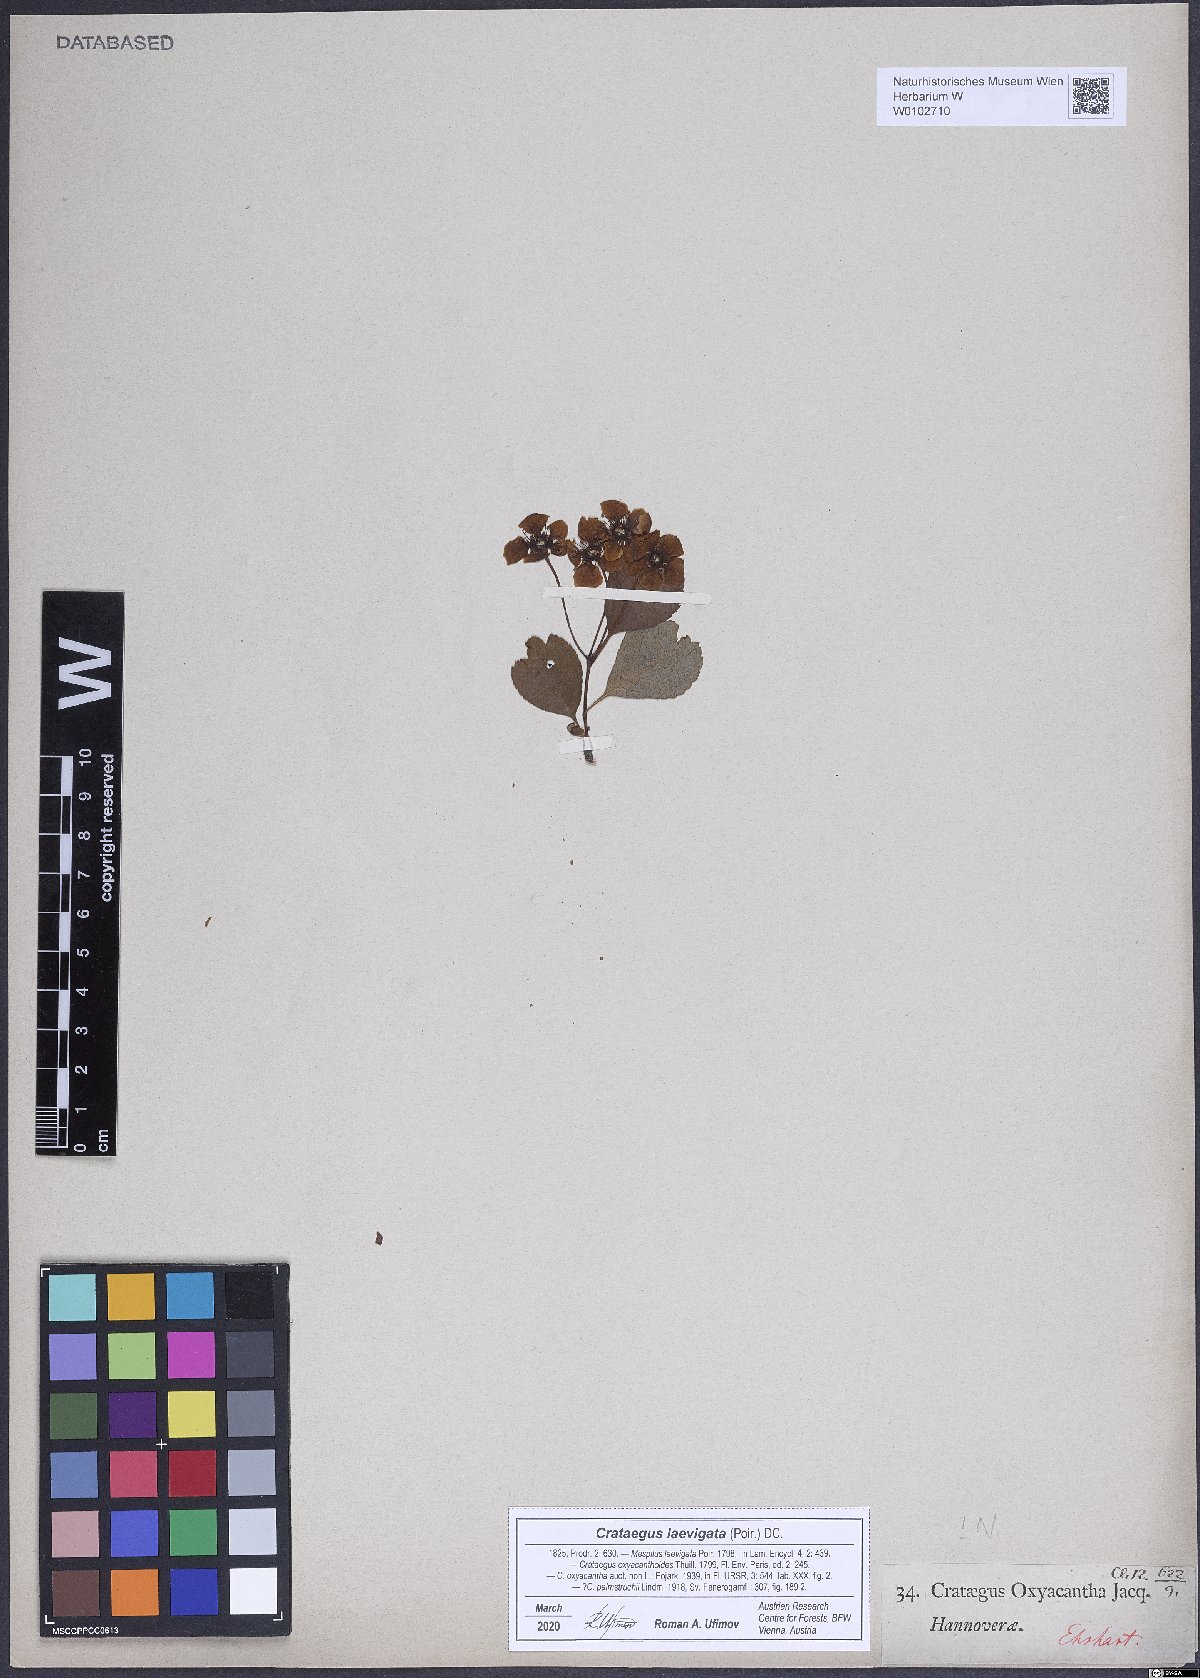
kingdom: Plantae
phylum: Tracheophyta
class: Magnoliopsida
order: Rosales
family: Rosaceae
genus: Crataegus
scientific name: Crataegus laevigata
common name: Midland hawthorn
